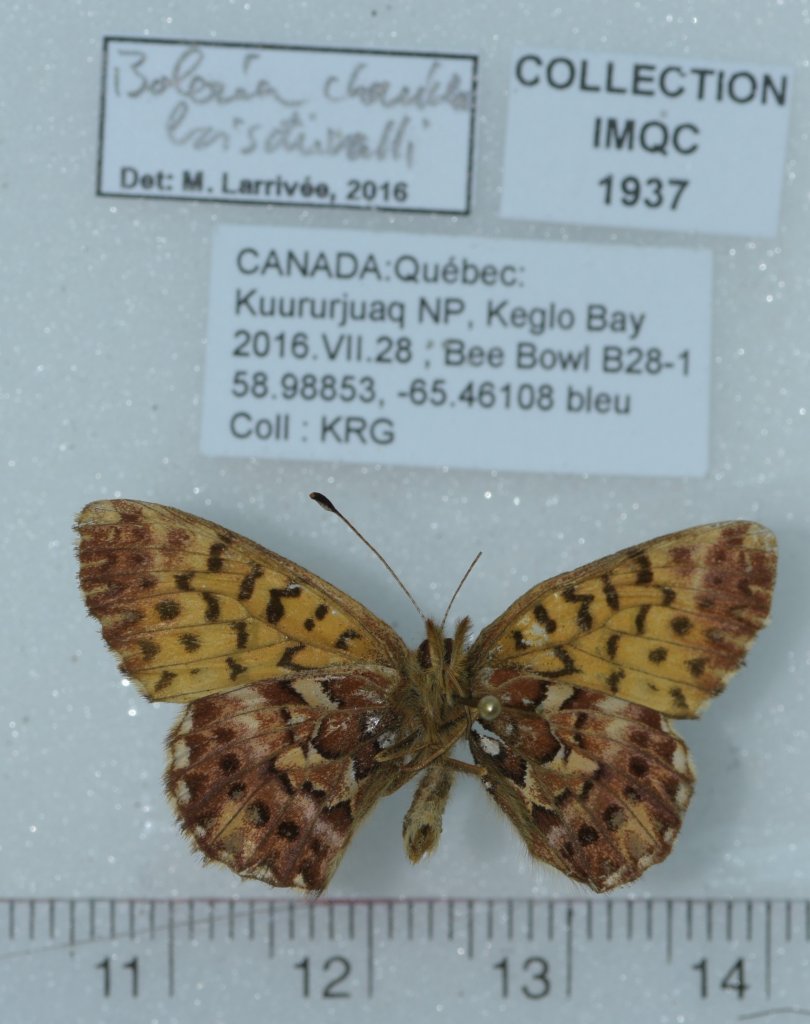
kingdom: Animalia
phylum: Arthropoda
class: Insecta
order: Lepidoptera
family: Nymphalidae
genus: Boloria
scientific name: Boloria chariclea
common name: Arctic Fritillary
